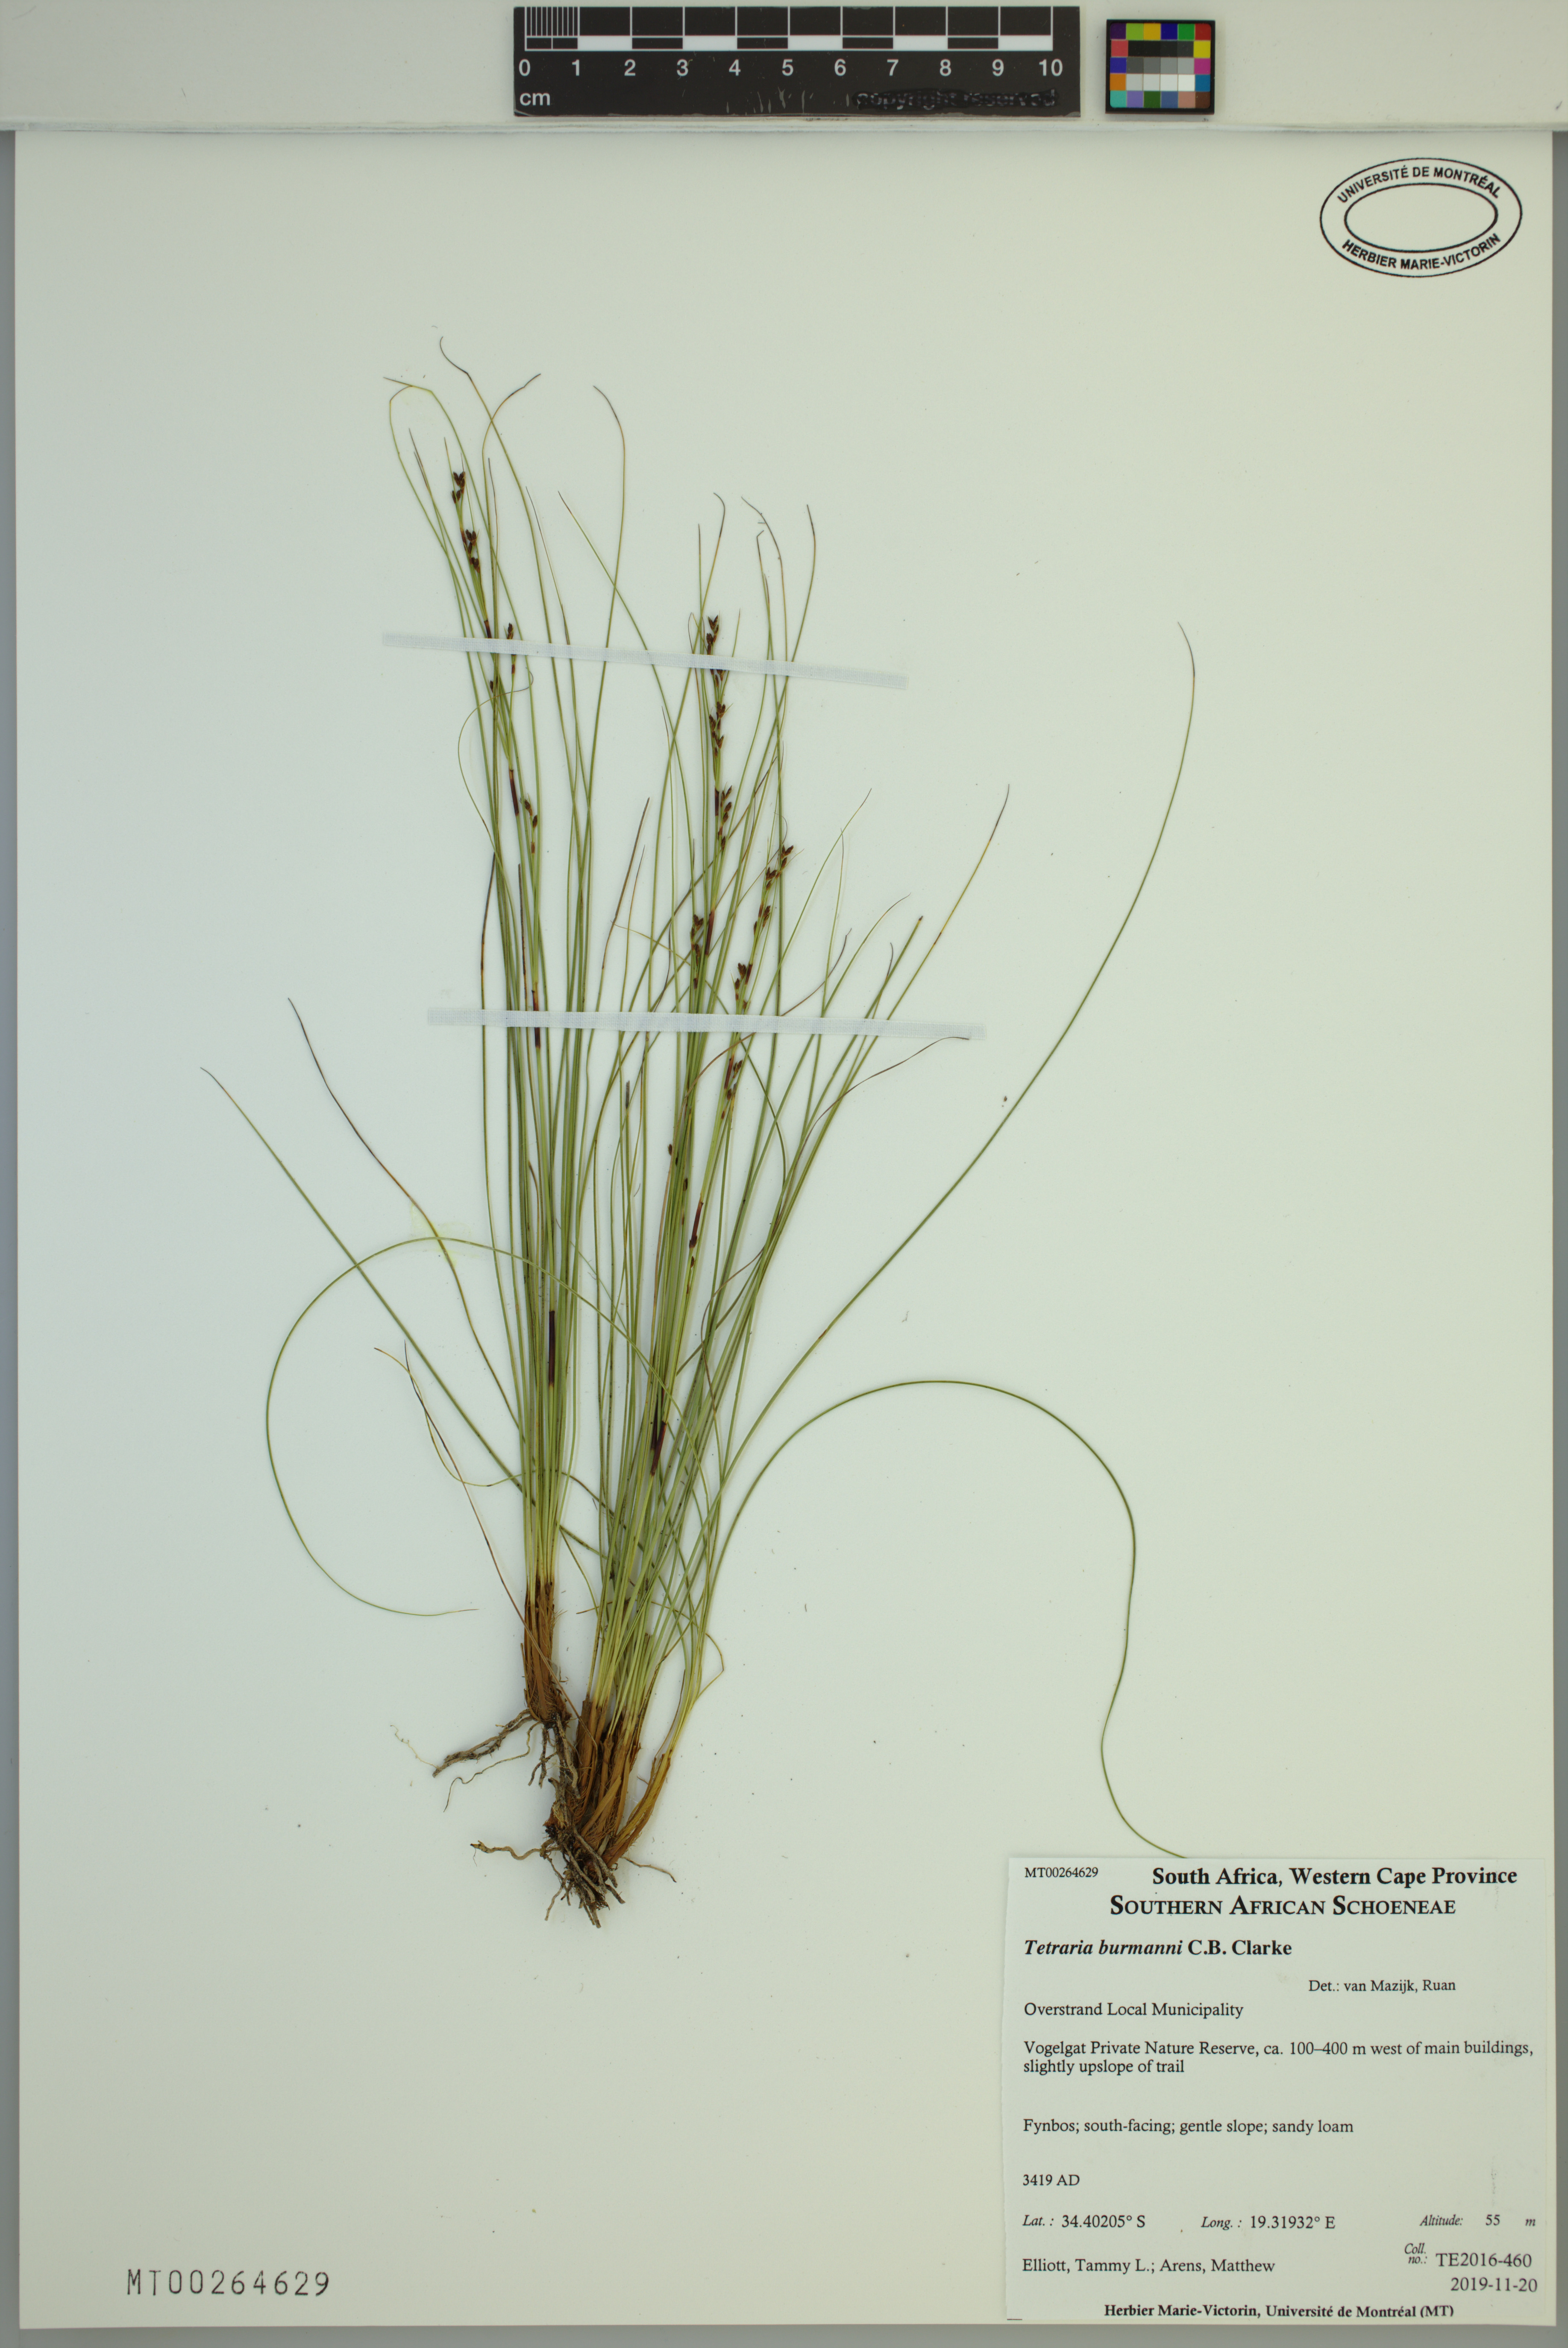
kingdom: Plantae
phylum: Tracheophyta
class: Liliopsida
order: Poales
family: Cyperaceae
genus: Tetraria
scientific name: Tetraria burmanni
